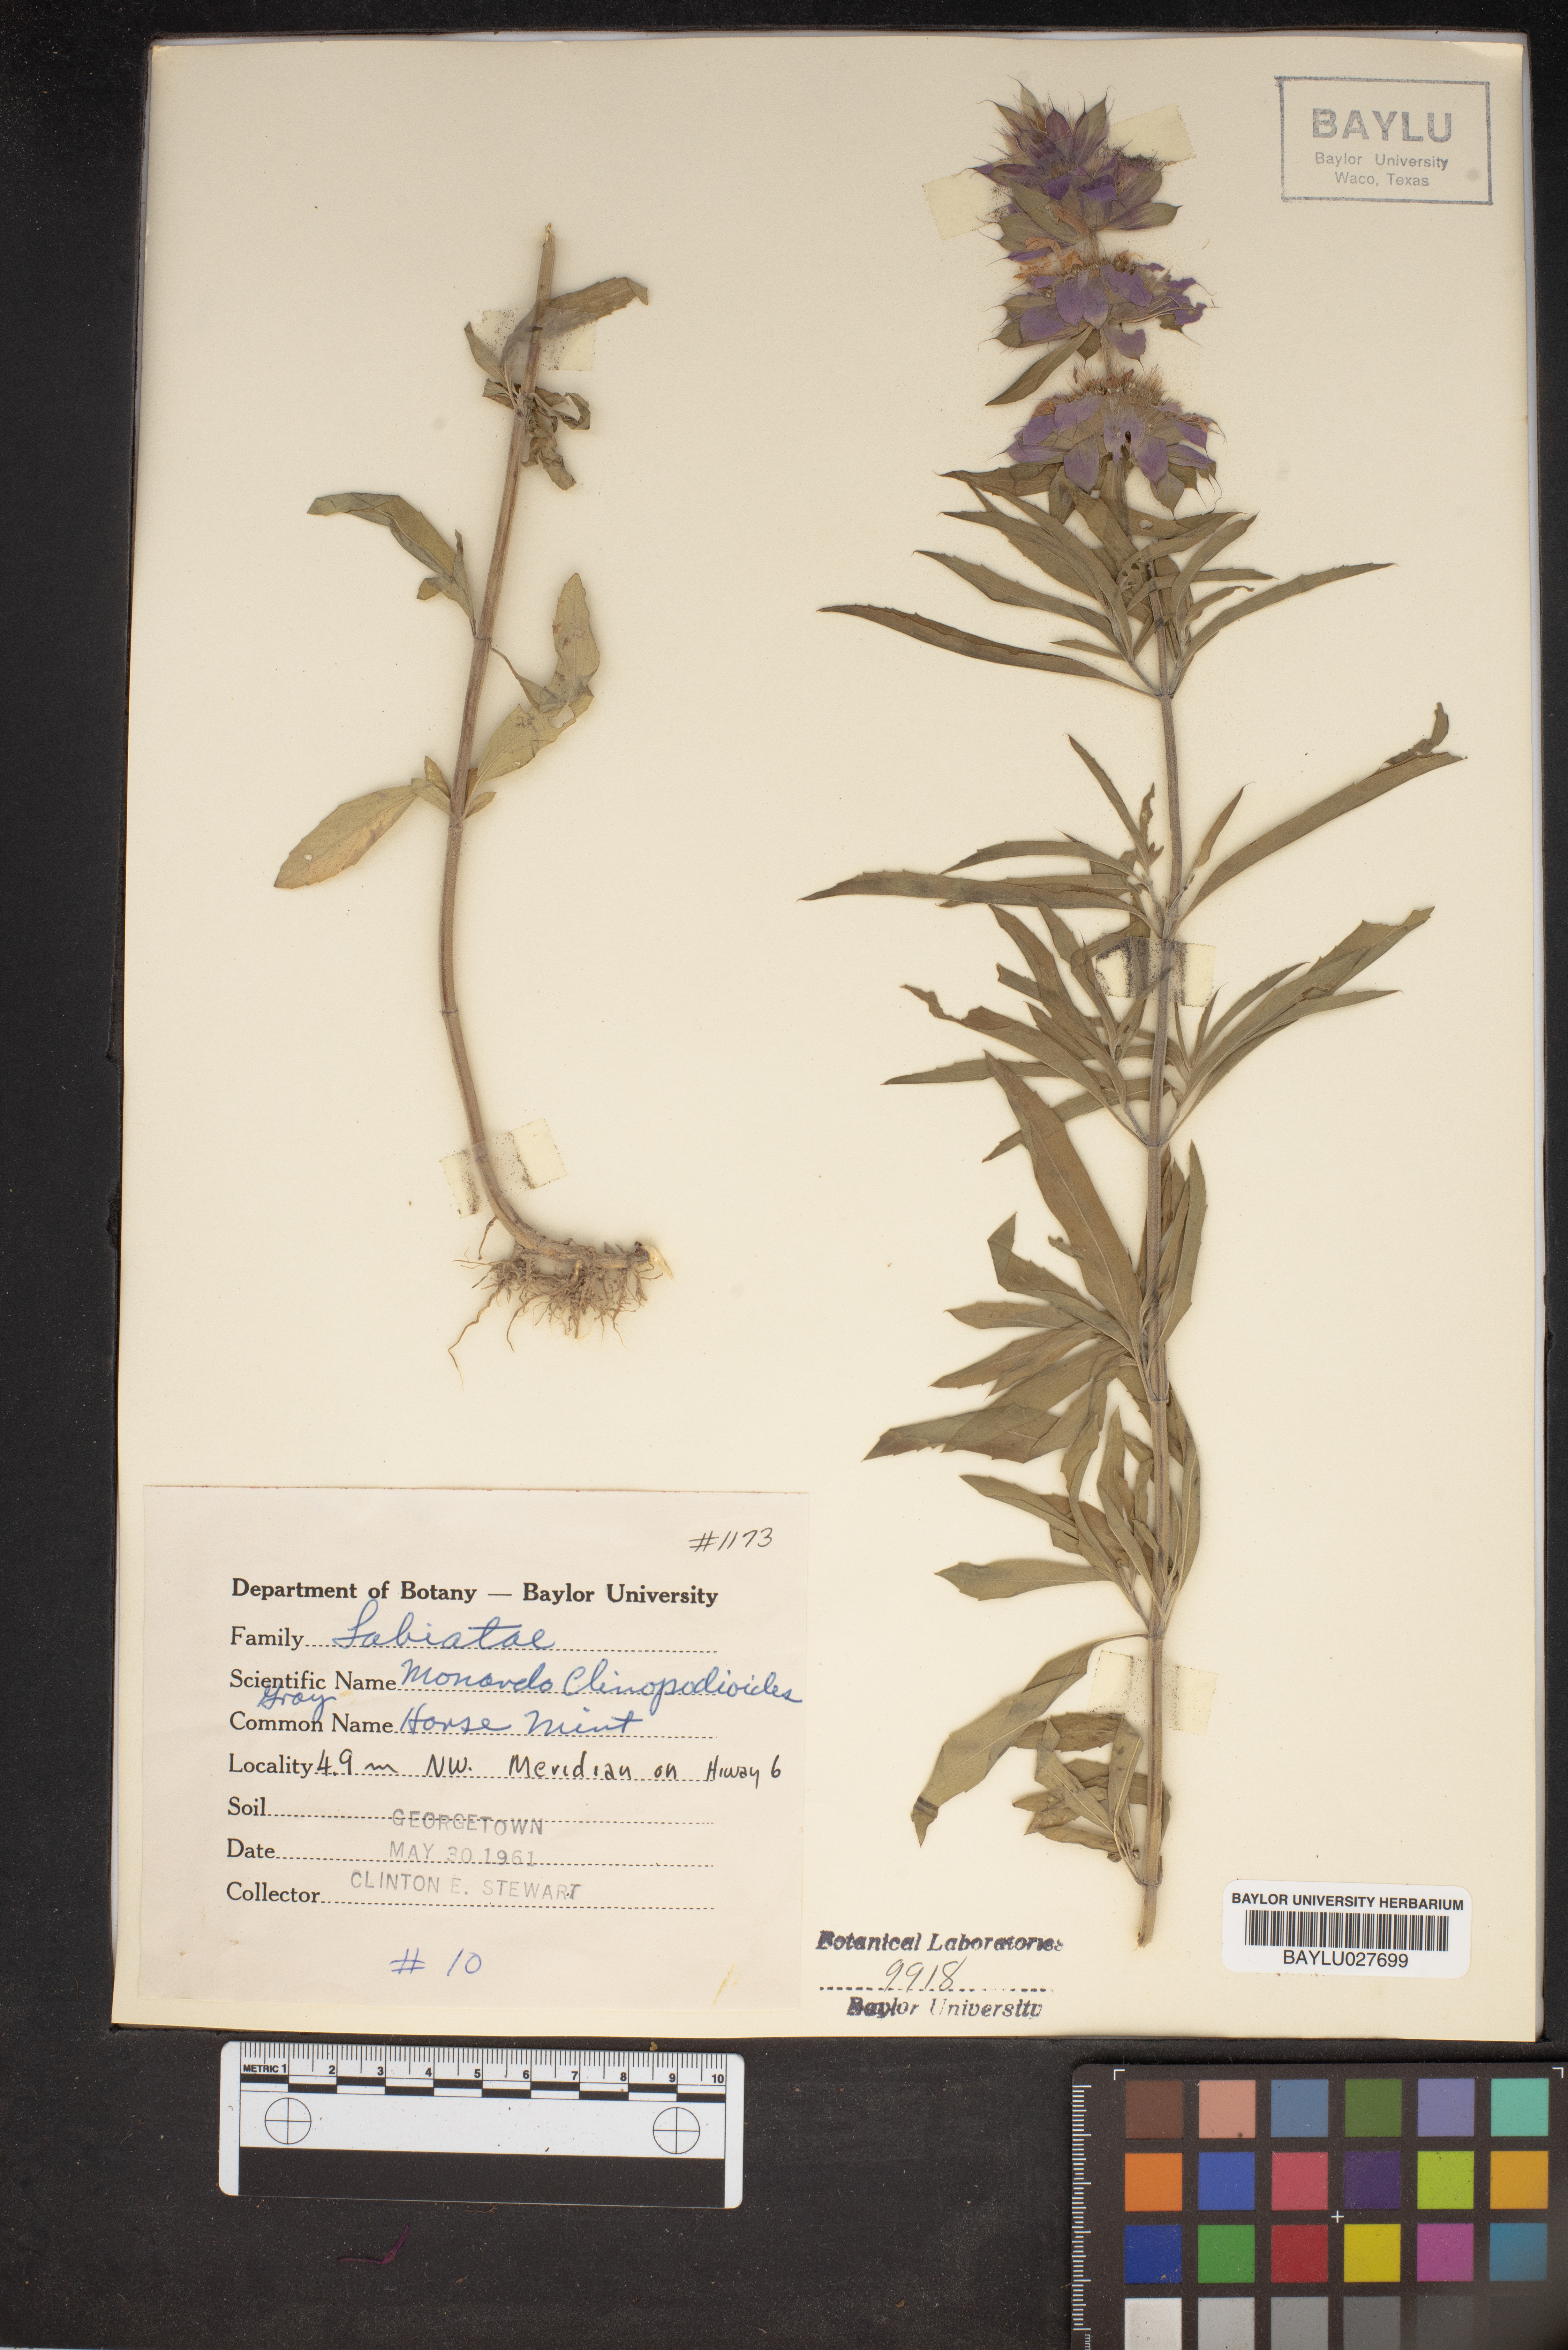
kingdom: Plantae
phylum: Tracheophyta
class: Magnoliopsida
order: Lamiales
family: Lamiaceae
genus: Monarda
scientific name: Monarda clinopodioides
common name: Basil beebalm
